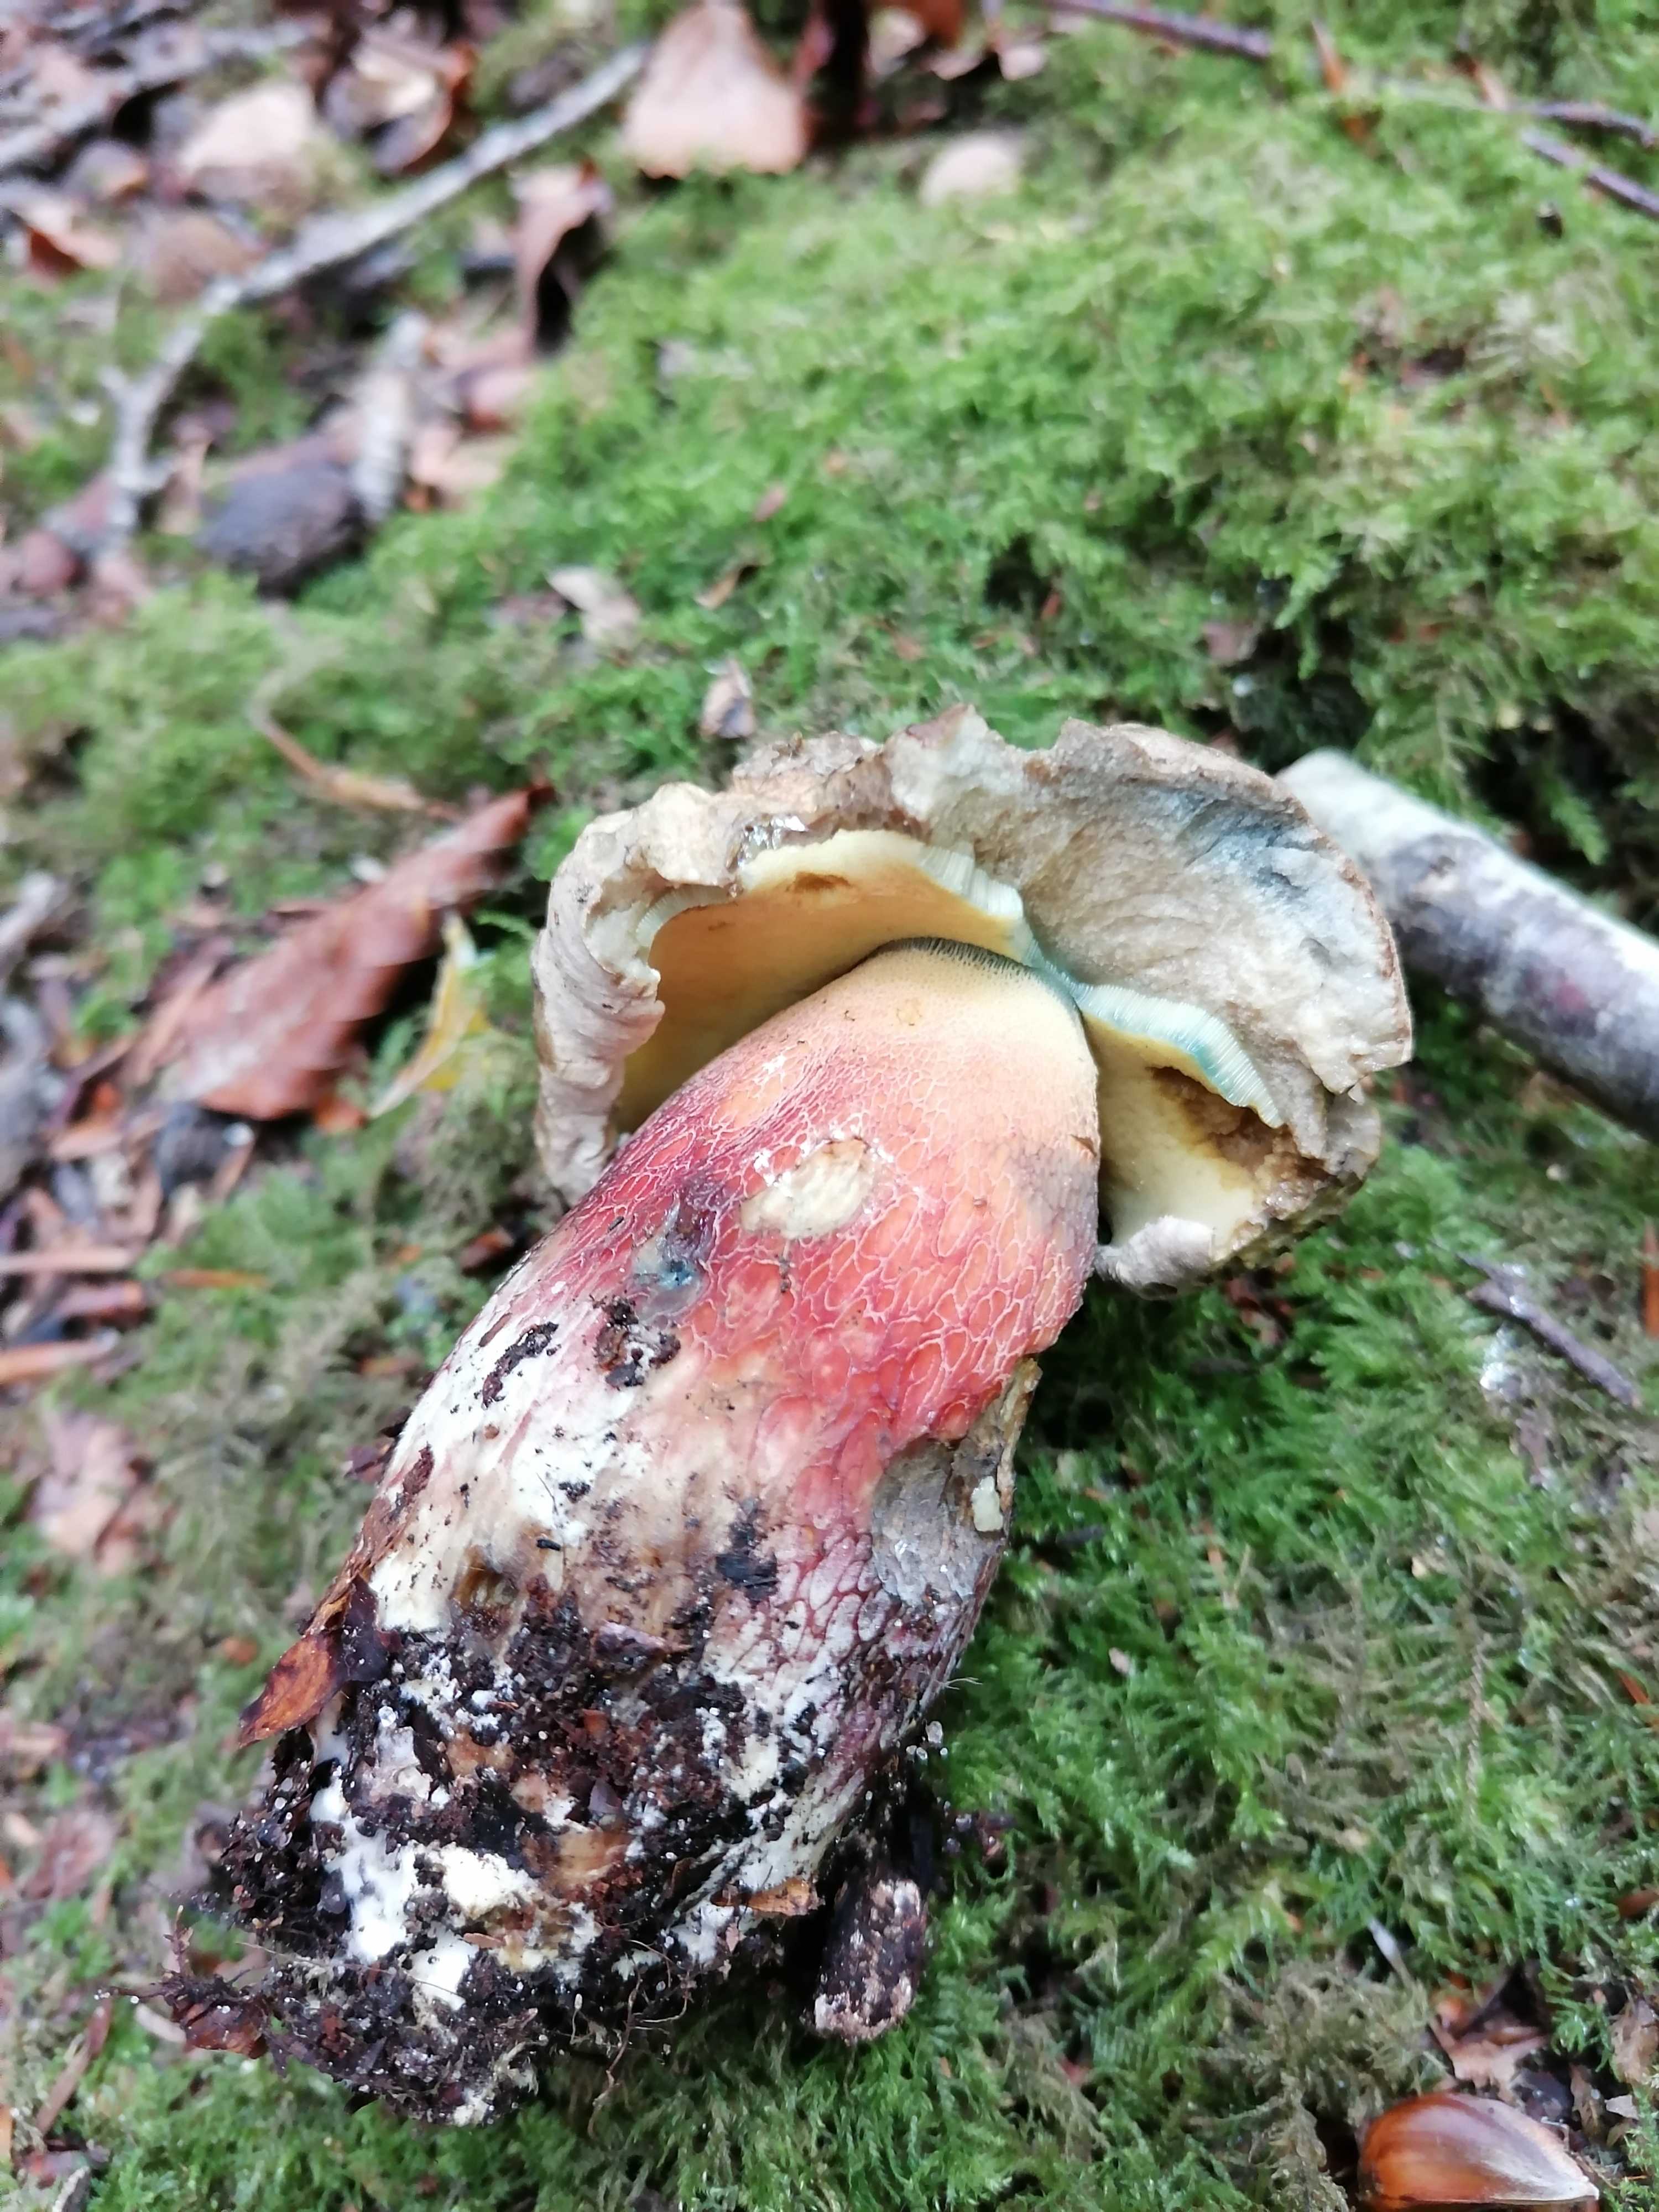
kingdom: Fungi
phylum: Basidiomycota
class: Agaricomycetes
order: Boletales
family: Boletaceae
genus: Caloboletus
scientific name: Caloboletus calopus
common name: skønfodet rørhat
